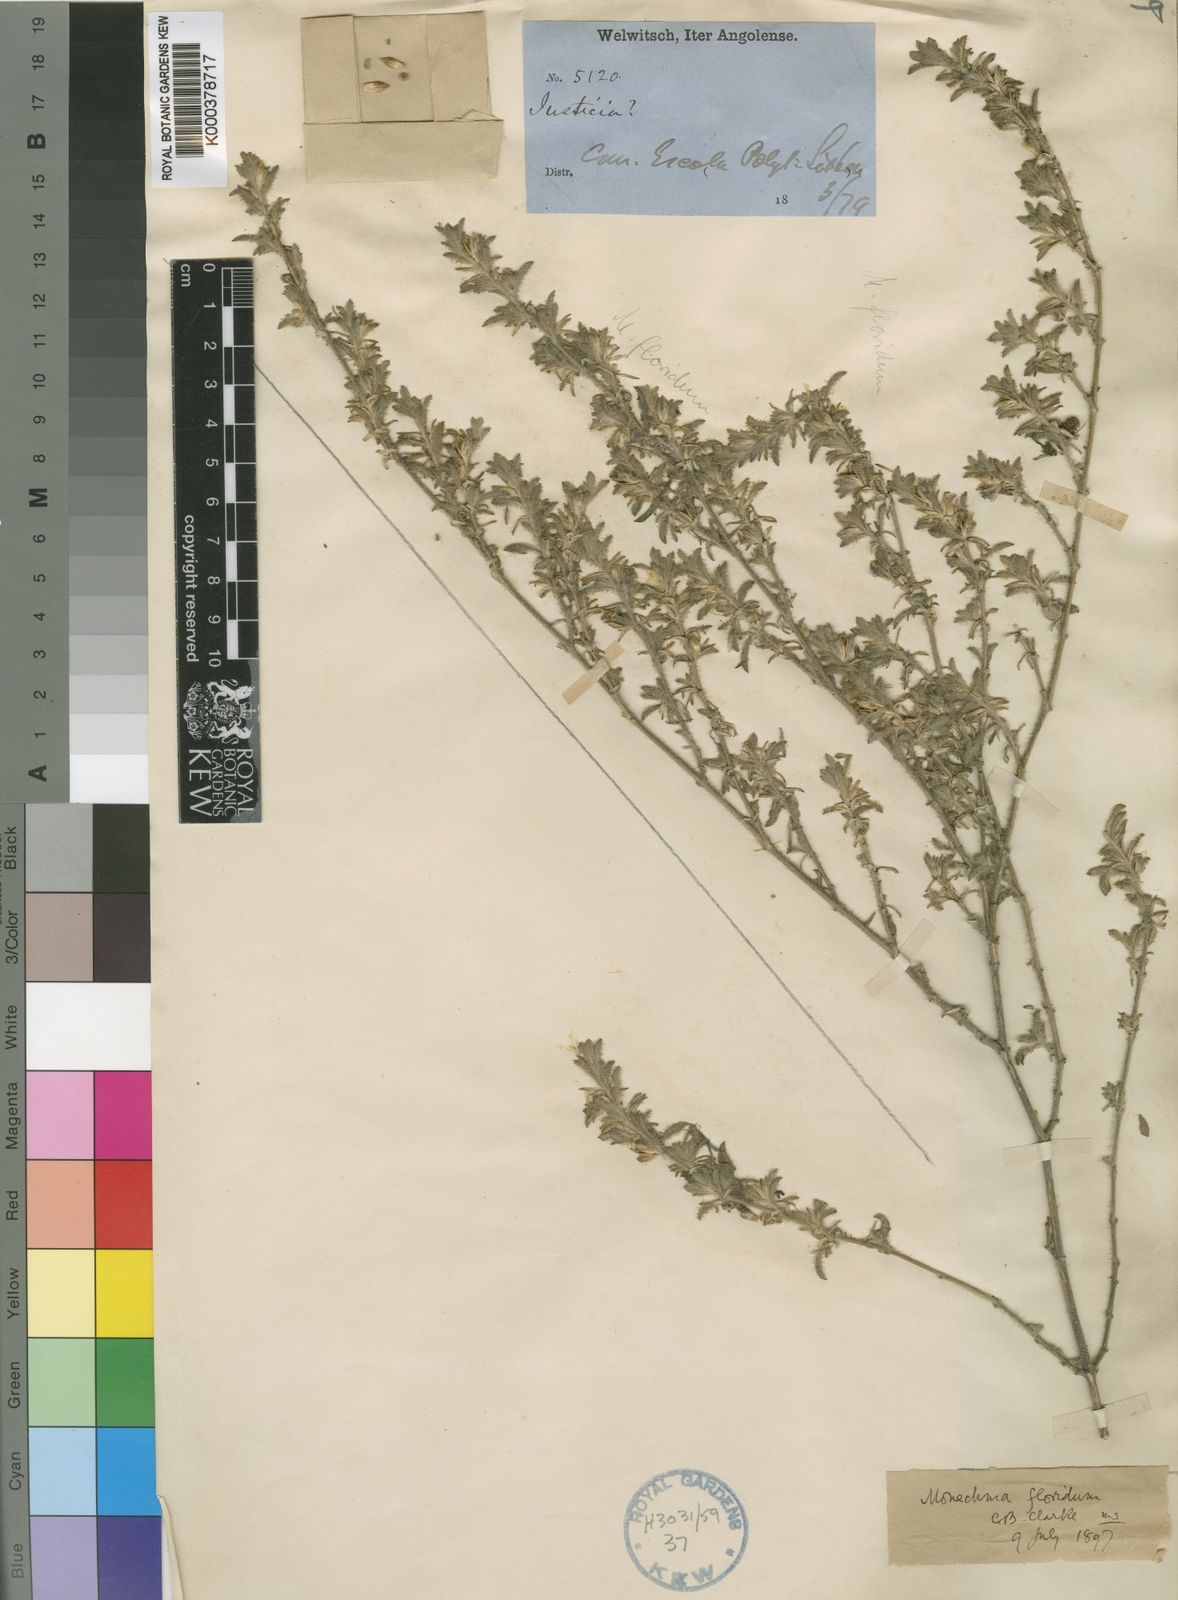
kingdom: Plantae
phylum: Tracheophyta
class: Magnoliopsida
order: Lamiales
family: Acanthaceae
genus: Monechma
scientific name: Monechma divaricatum
